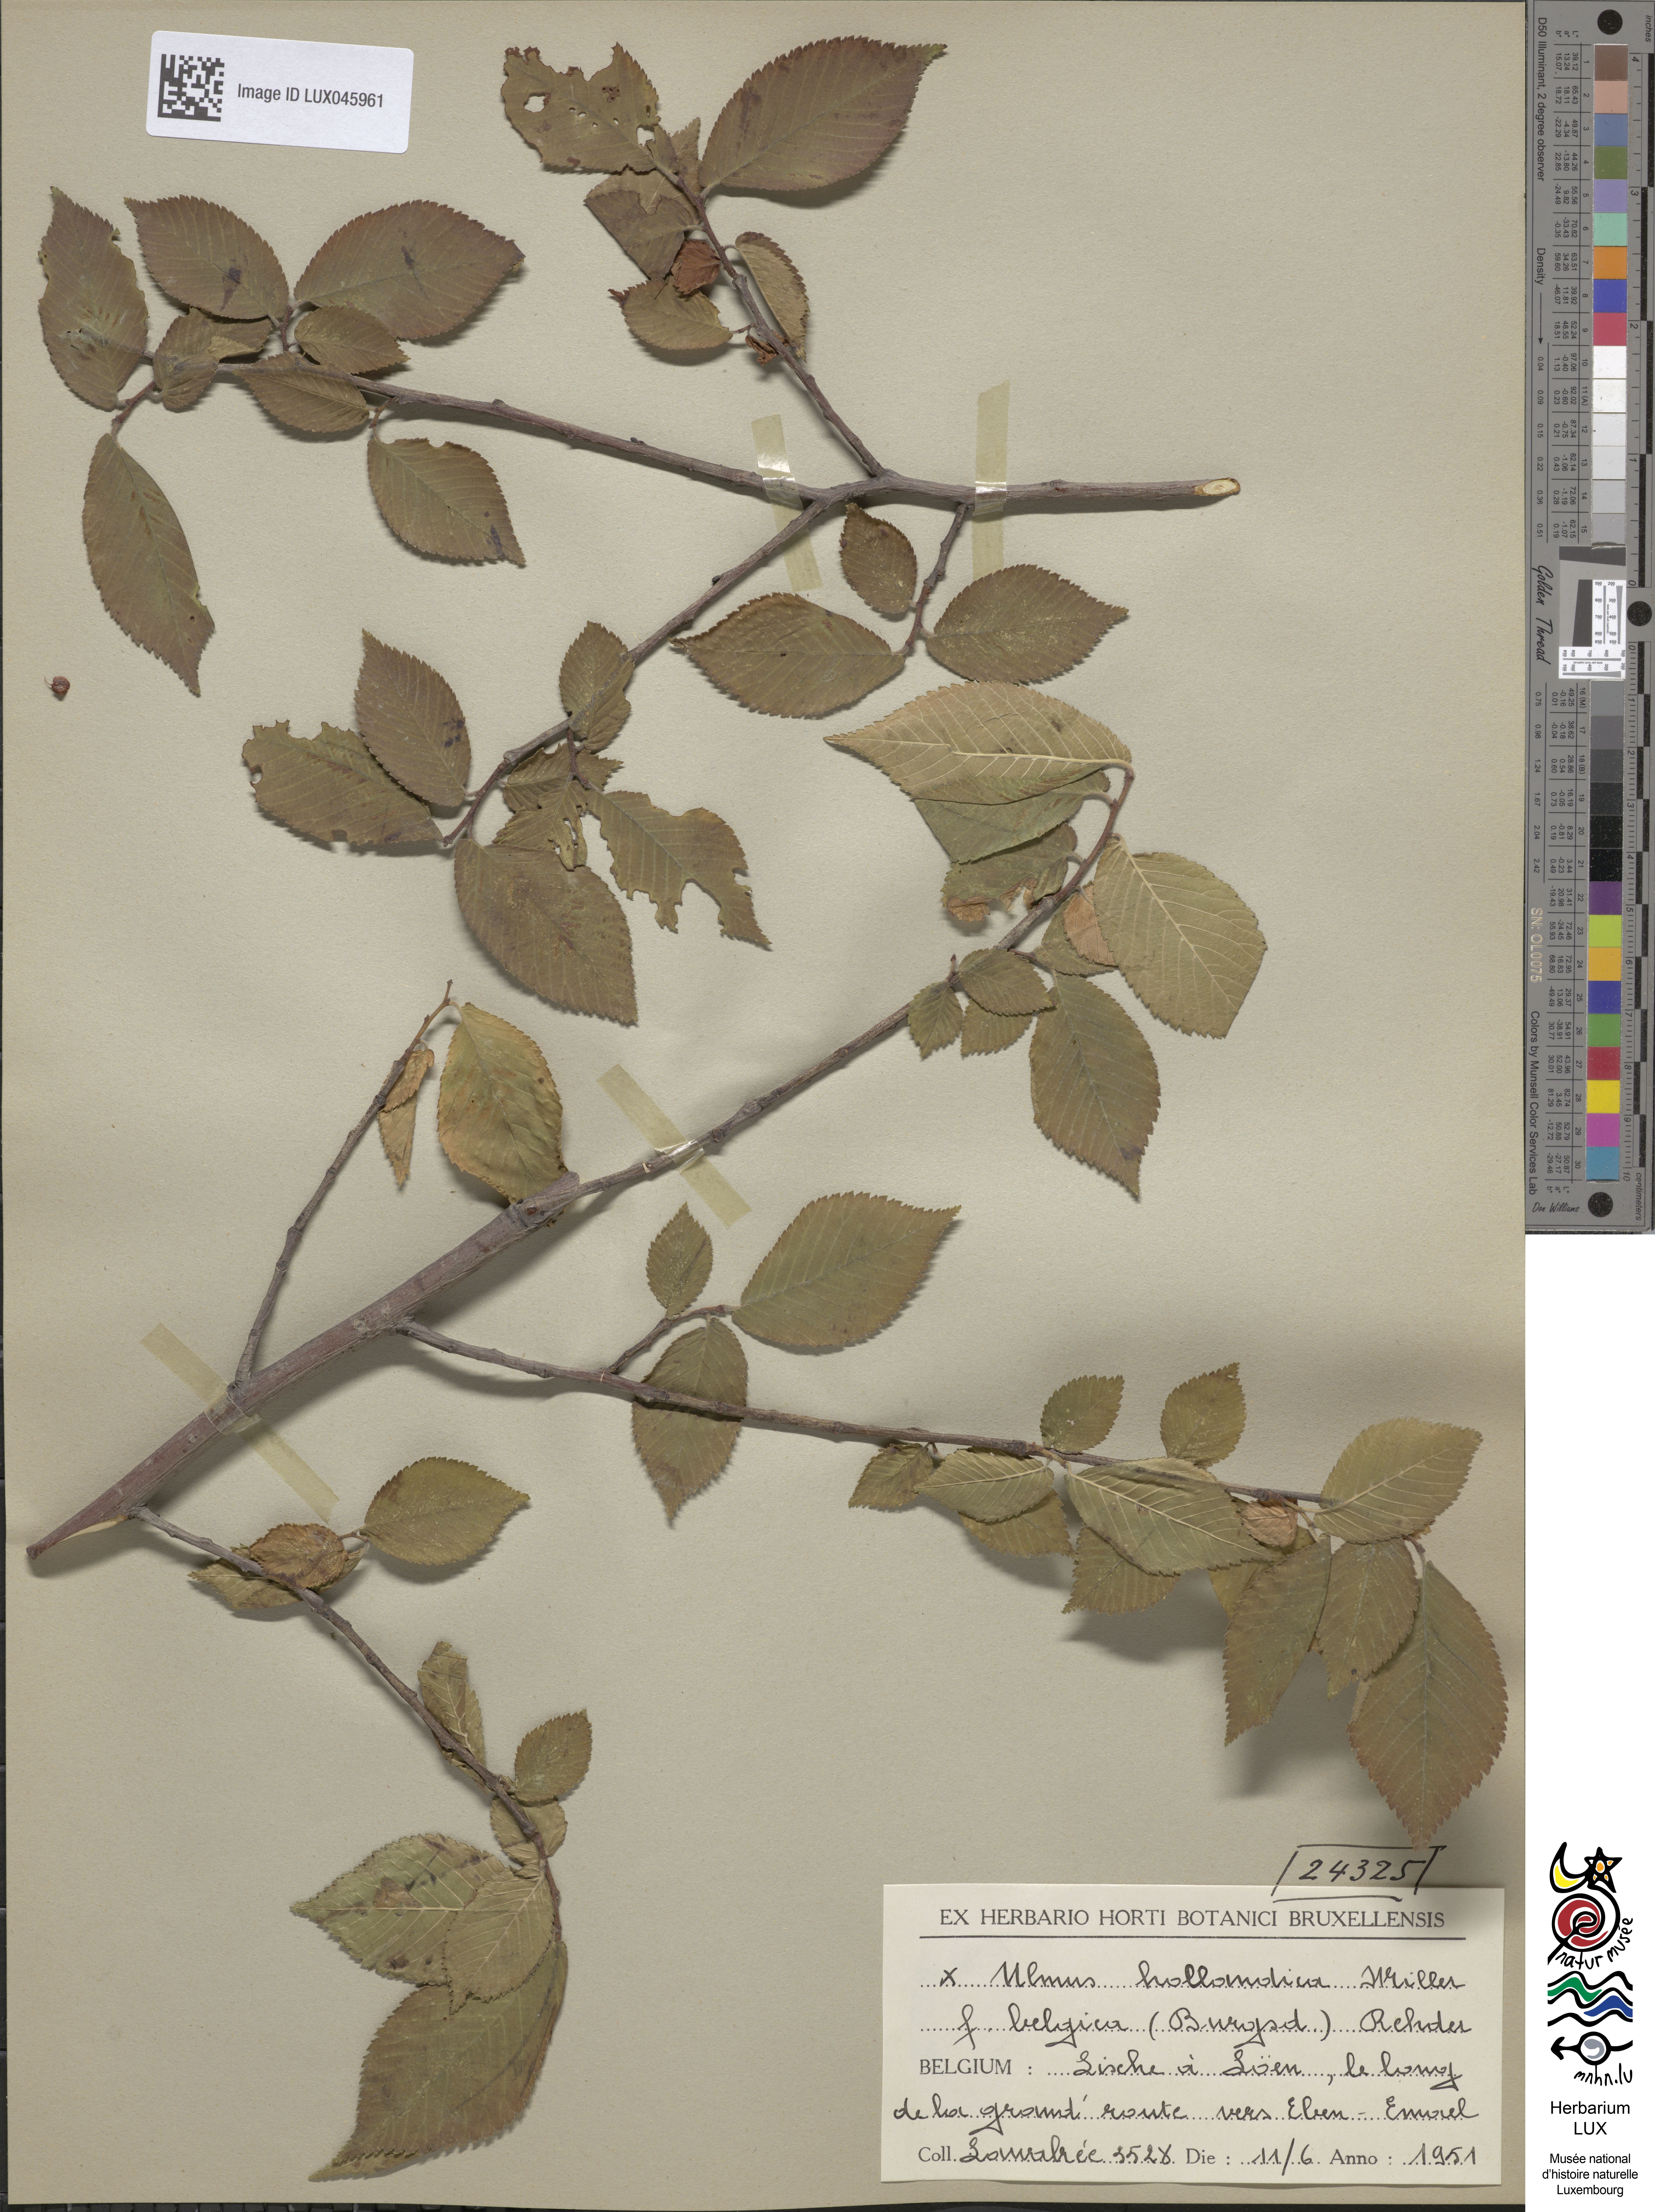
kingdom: Plantae
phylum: Tracheophyta
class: Magnoliopsida
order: Rosales
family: Ulmaceae
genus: Ulmus
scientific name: Ulmus hollandica
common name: Dutch elm
